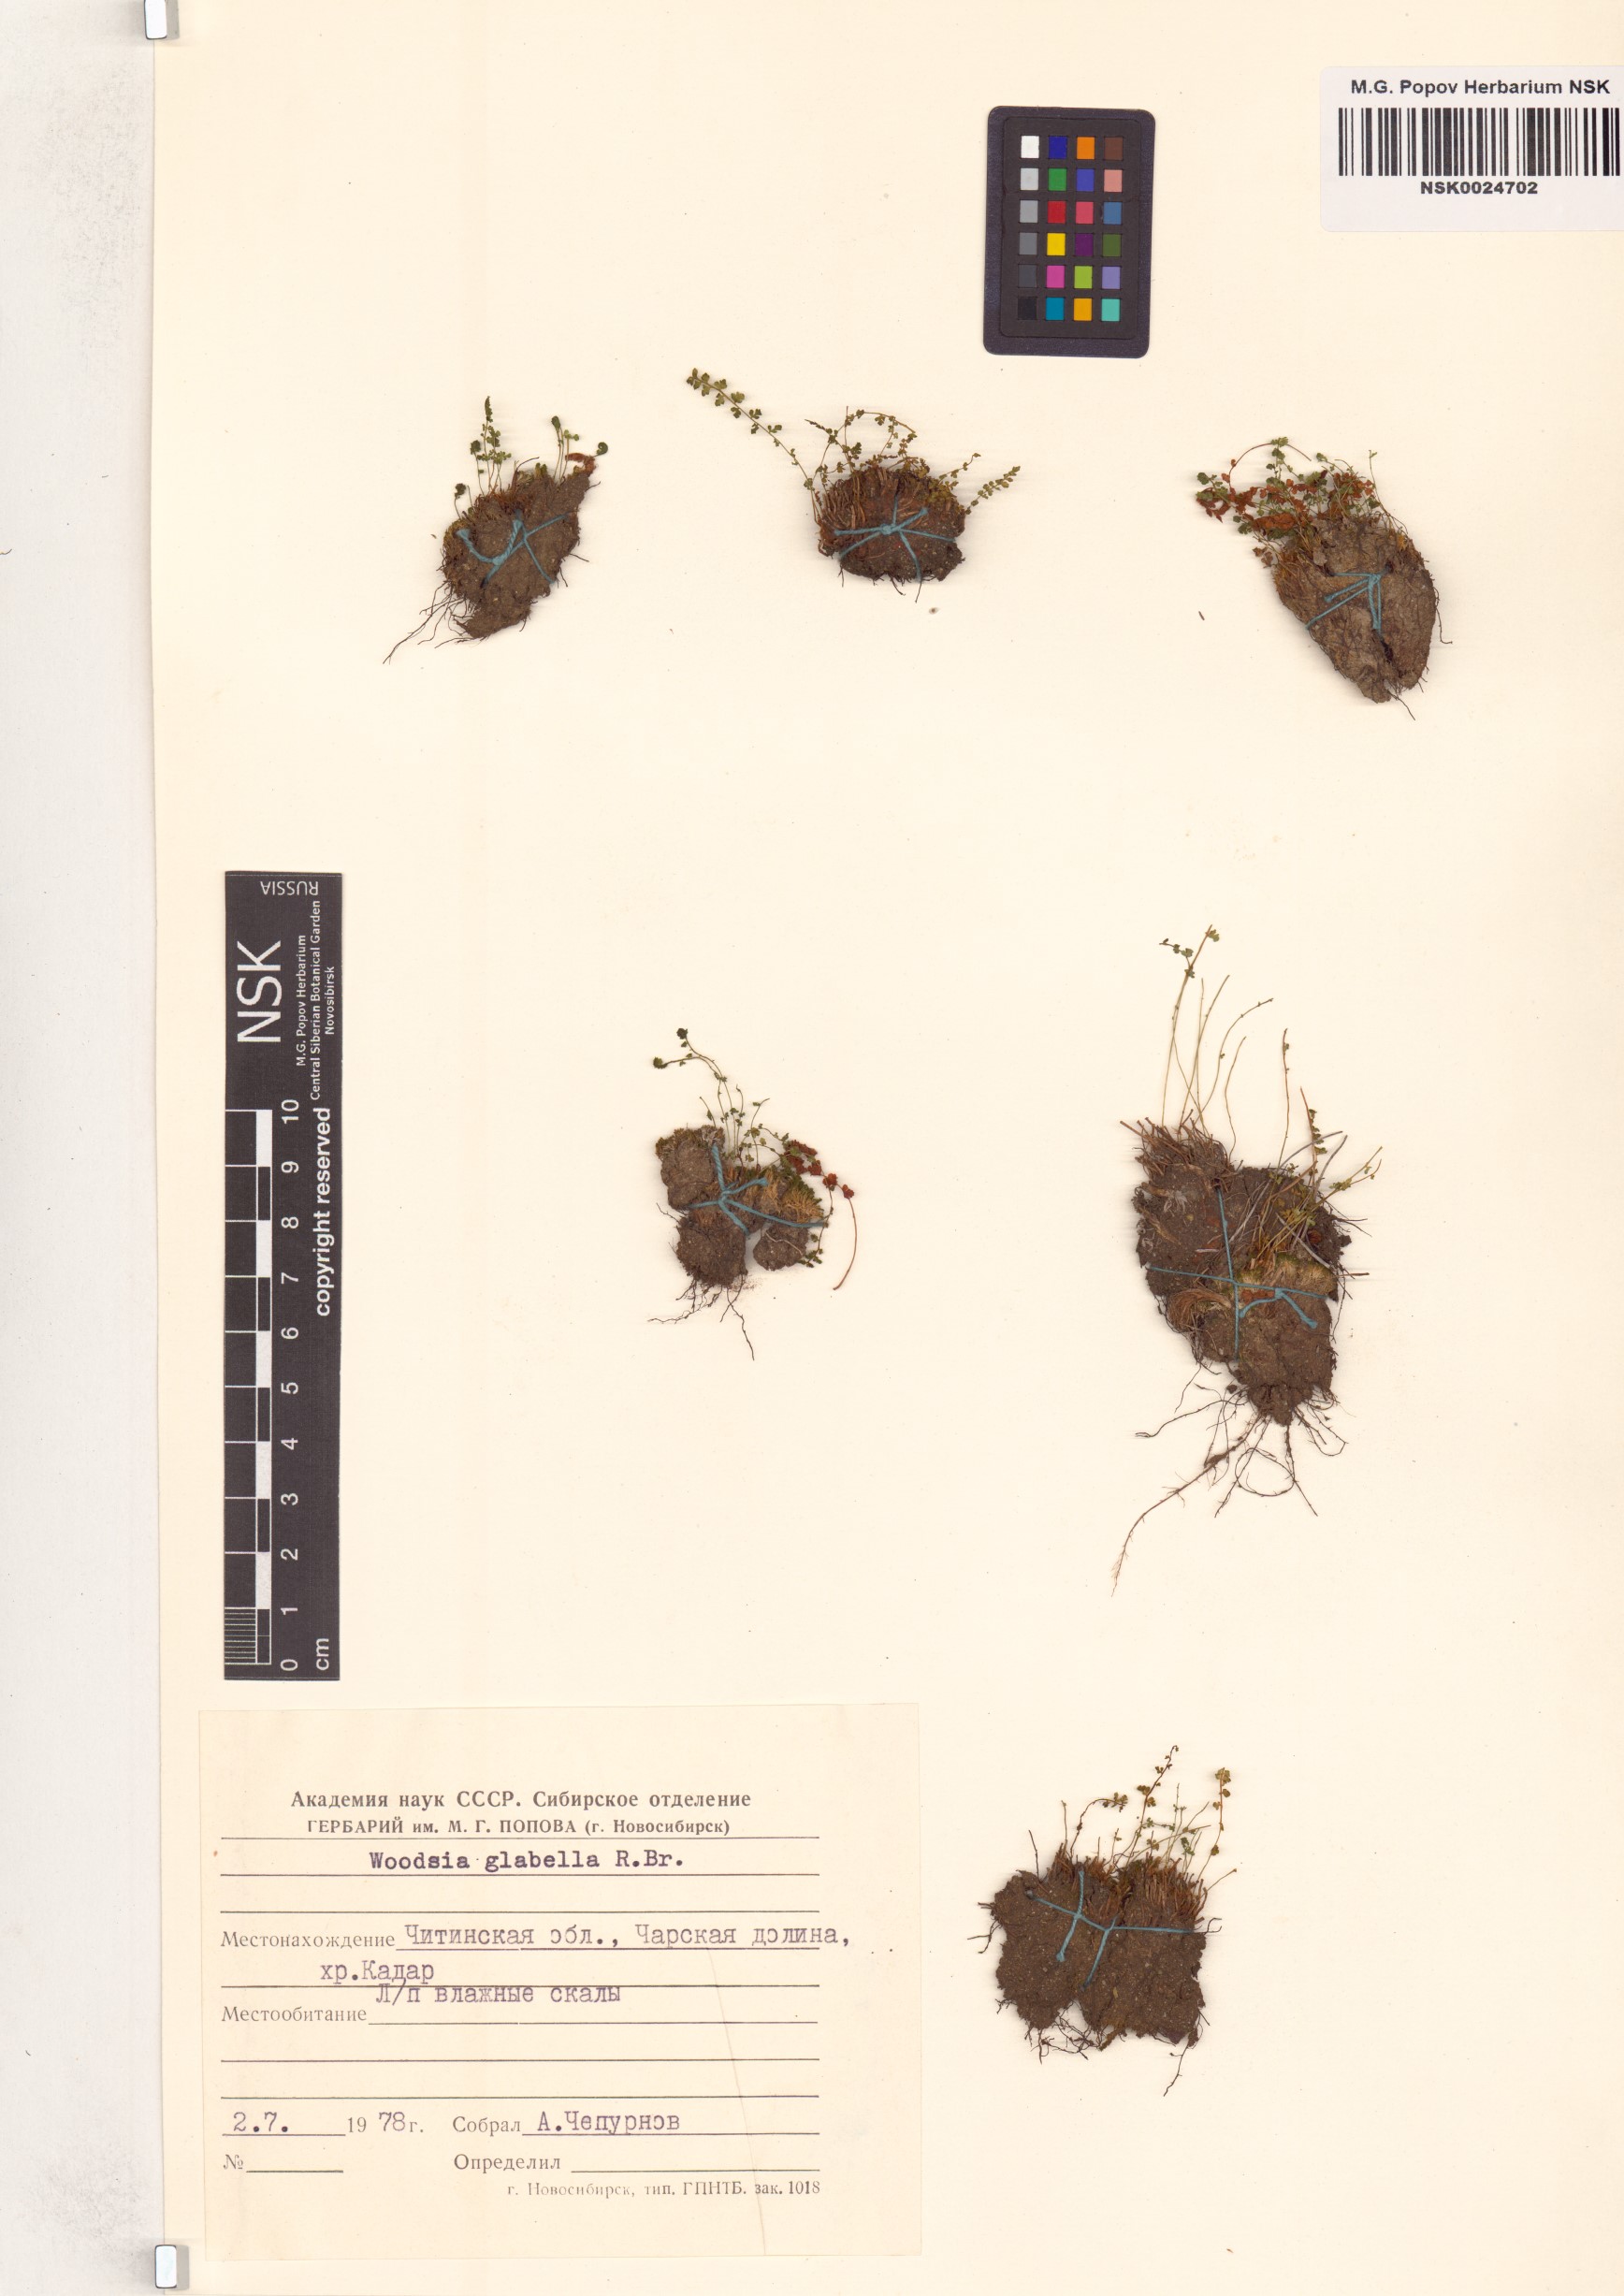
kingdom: Plantae
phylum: Tracheophyta
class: Polypodiopsida
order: Polypodiales
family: Woodsiaceae
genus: Woodsia
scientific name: Woodsia glabella
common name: Smooth woodsia
